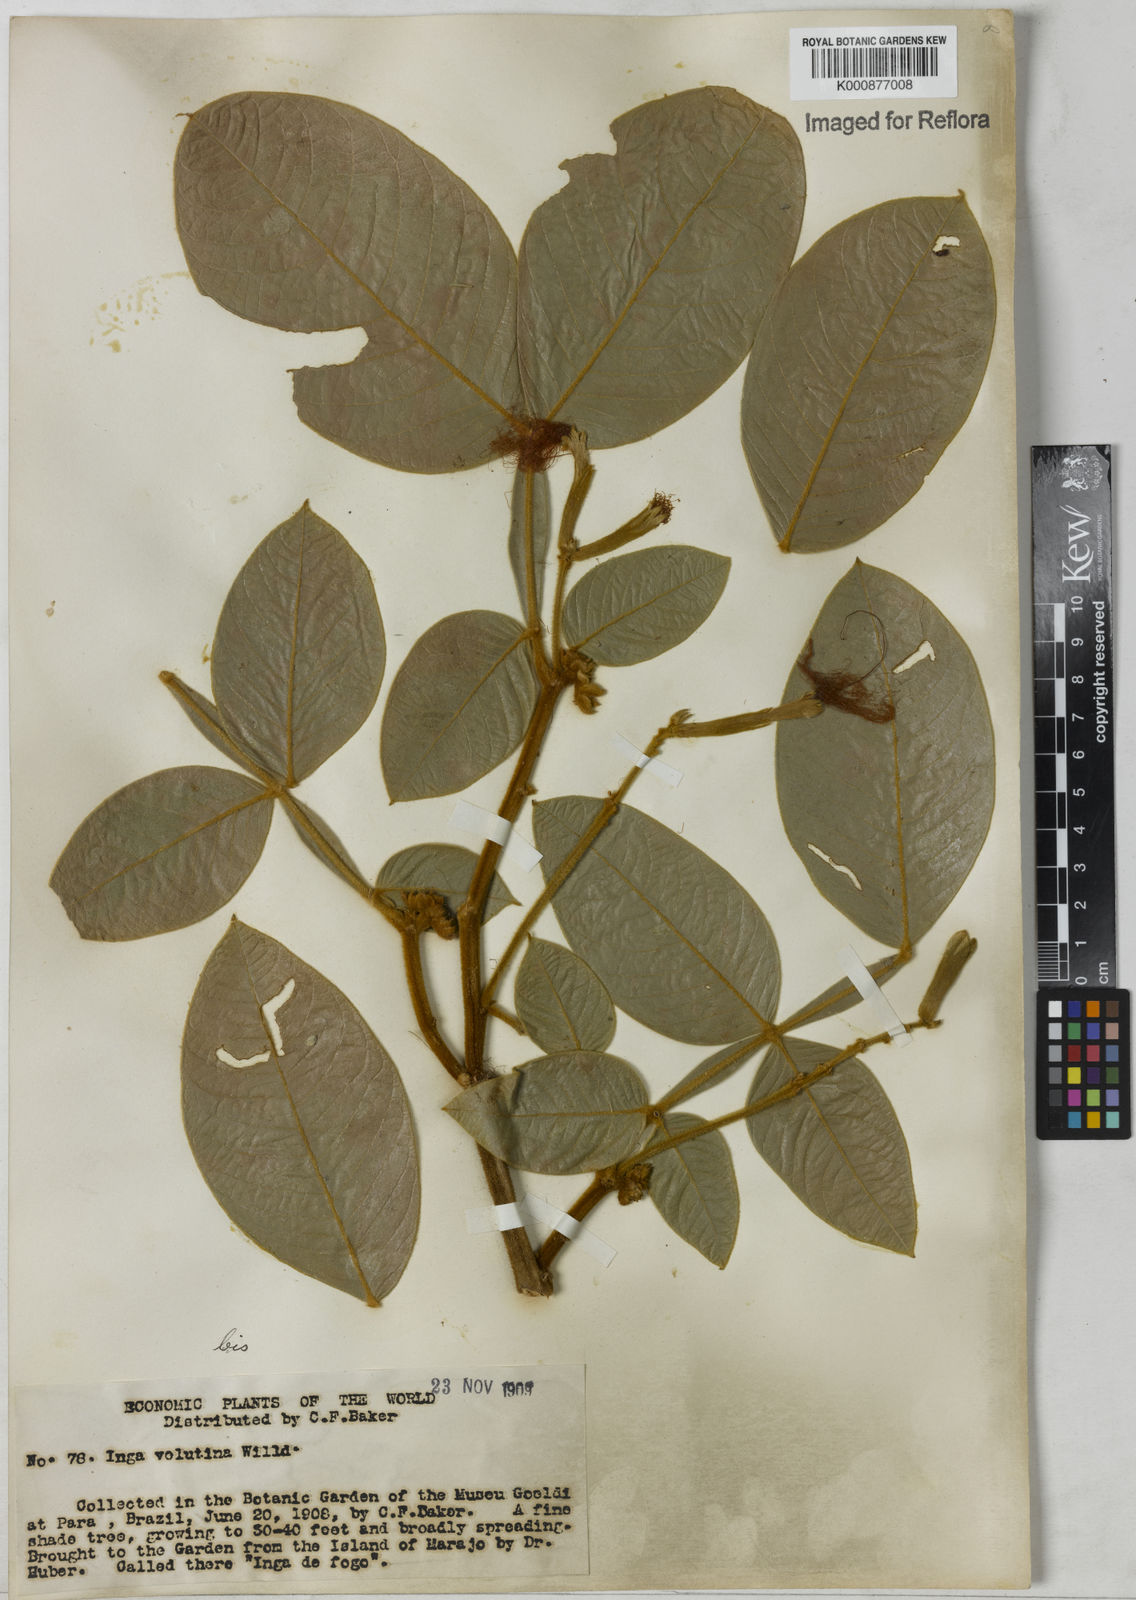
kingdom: Plantae
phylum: Tracheophyta
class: Magnoliopsida
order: Fabales
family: Fabaceae
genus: Inga
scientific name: Inga velutina
